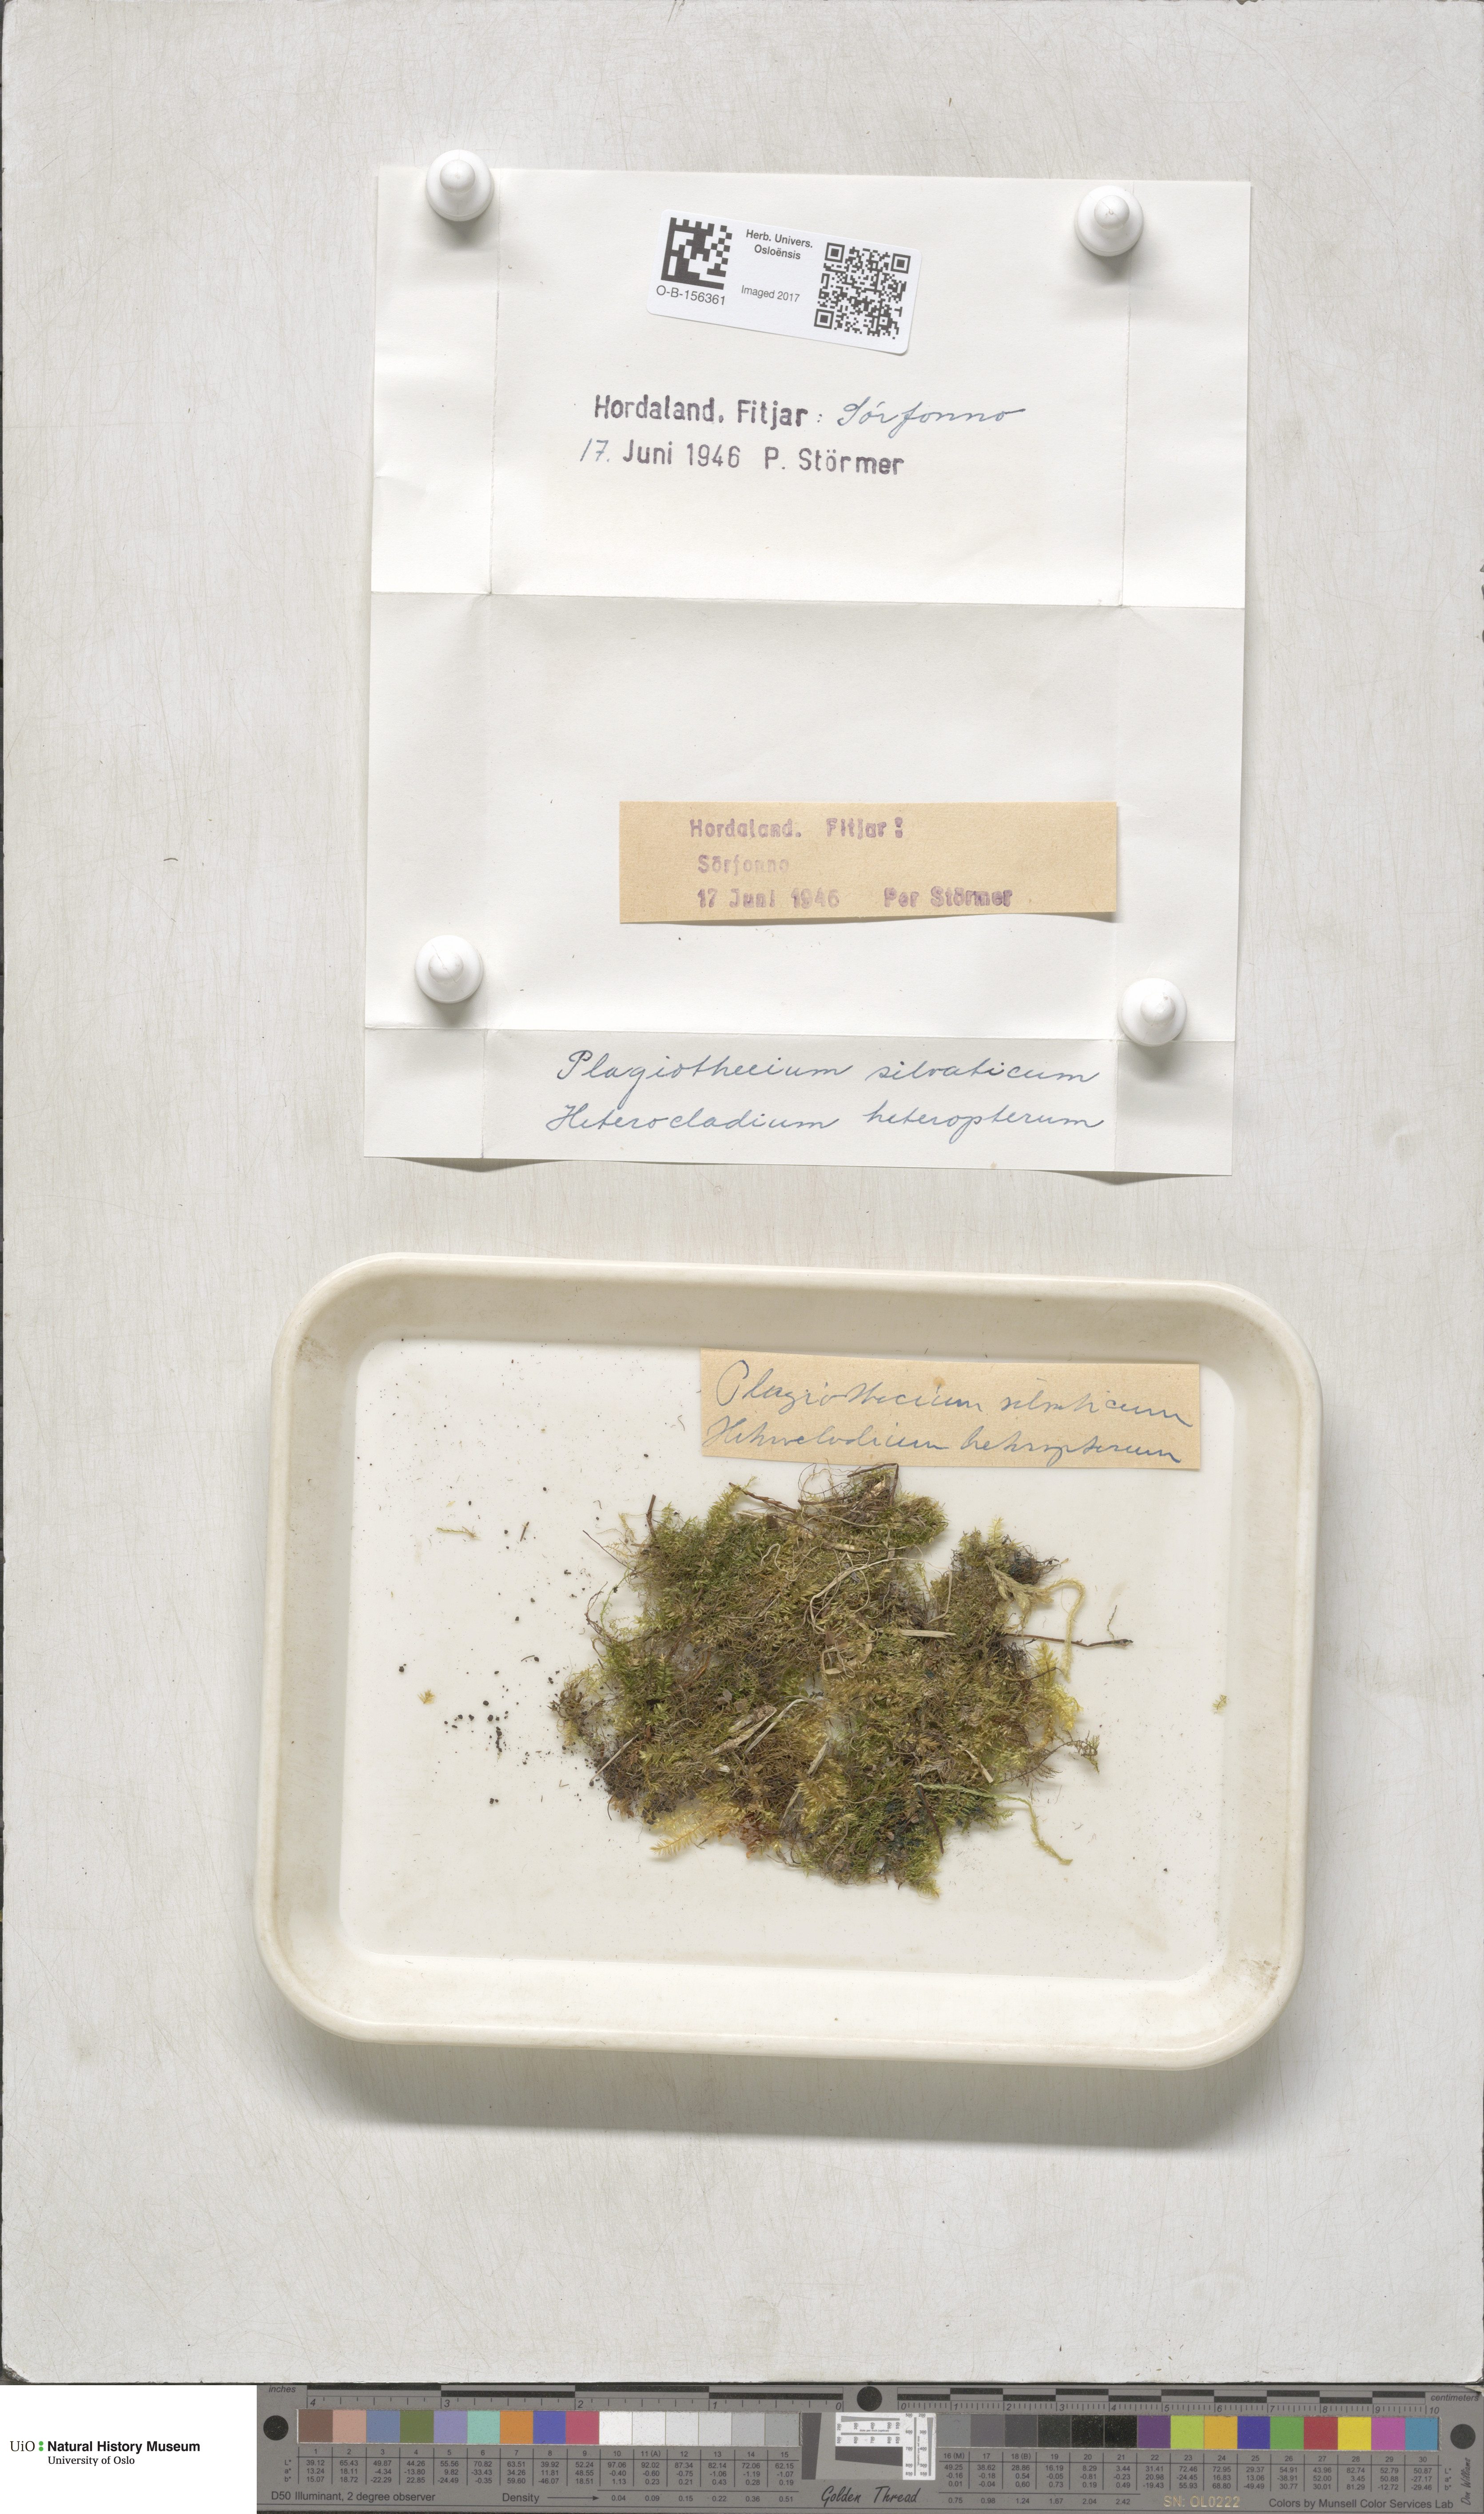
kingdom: Plantae
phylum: Bryophyta
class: Bryopsida
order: Hypnales
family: Plagiotheciaceae
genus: Plagiothecium
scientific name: Plagiothecium nemorale
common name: Woodsy silk-moss
